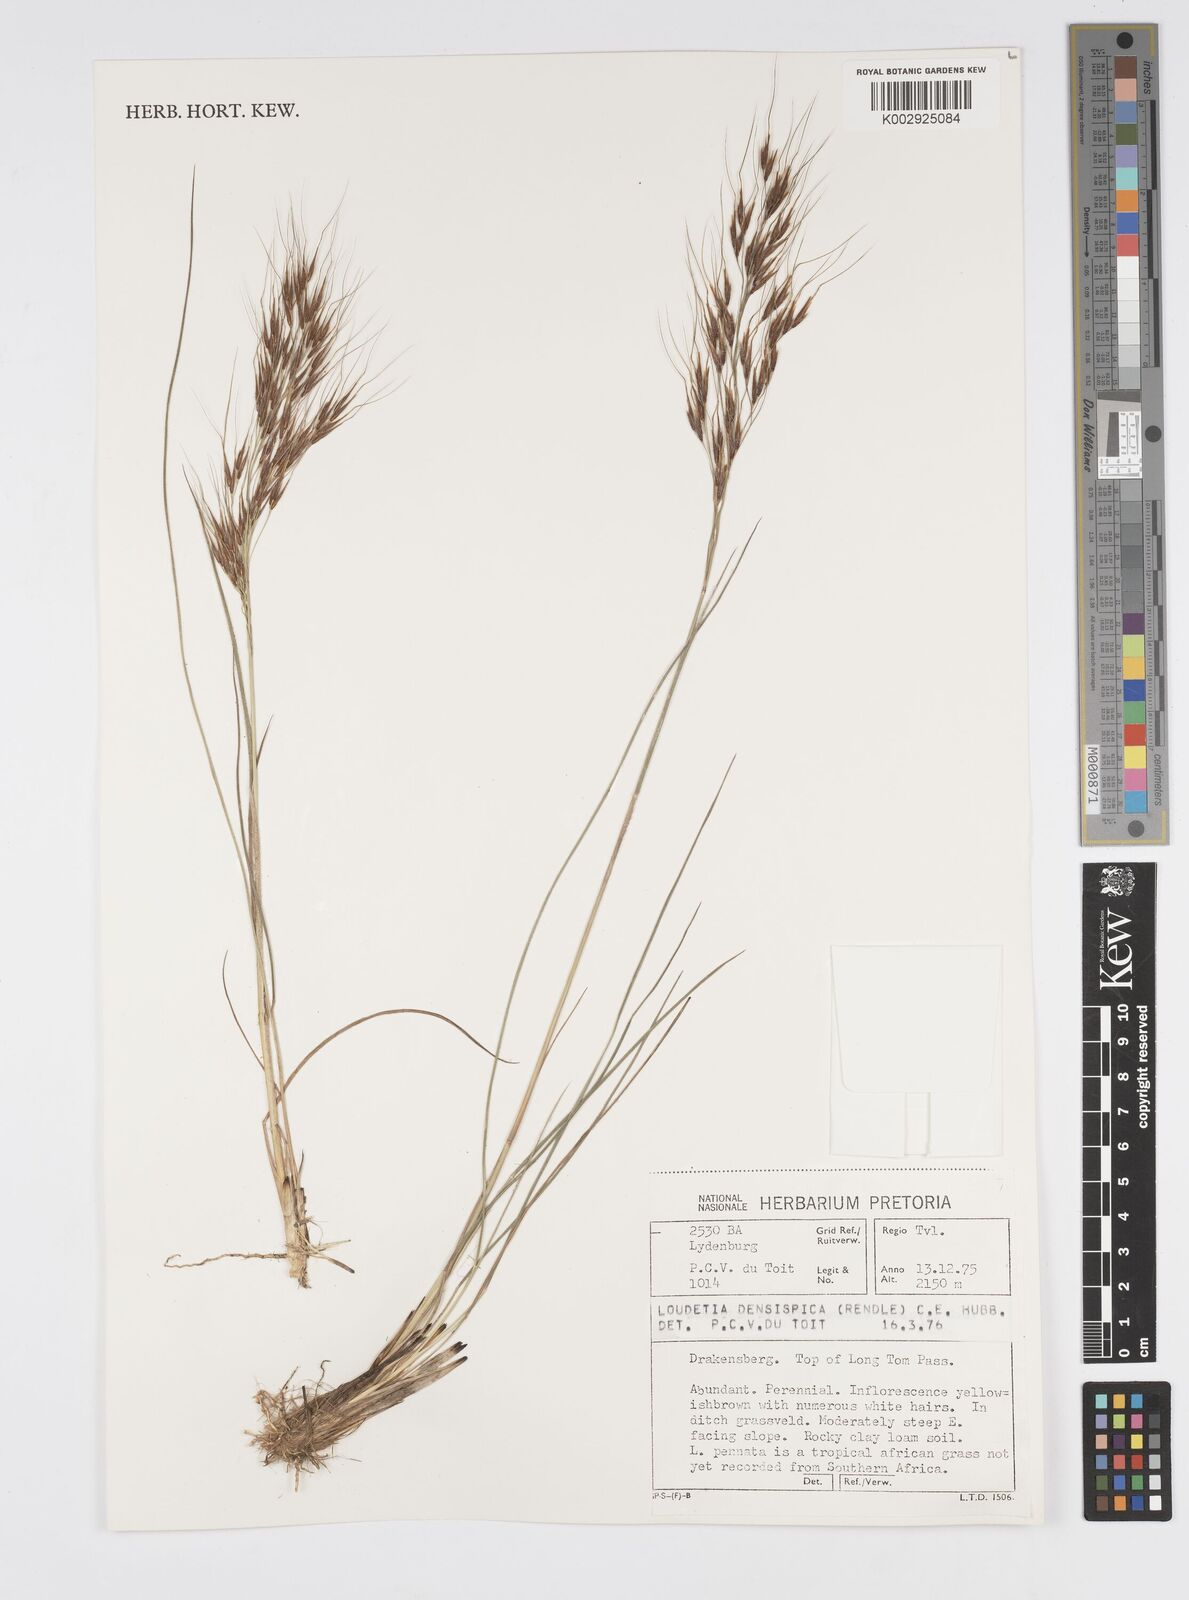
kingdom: Plantae
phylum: Tracheophyta
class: Liliopsida
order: Poales
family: Poaceae
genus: Loudetia
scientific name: Loudetia
